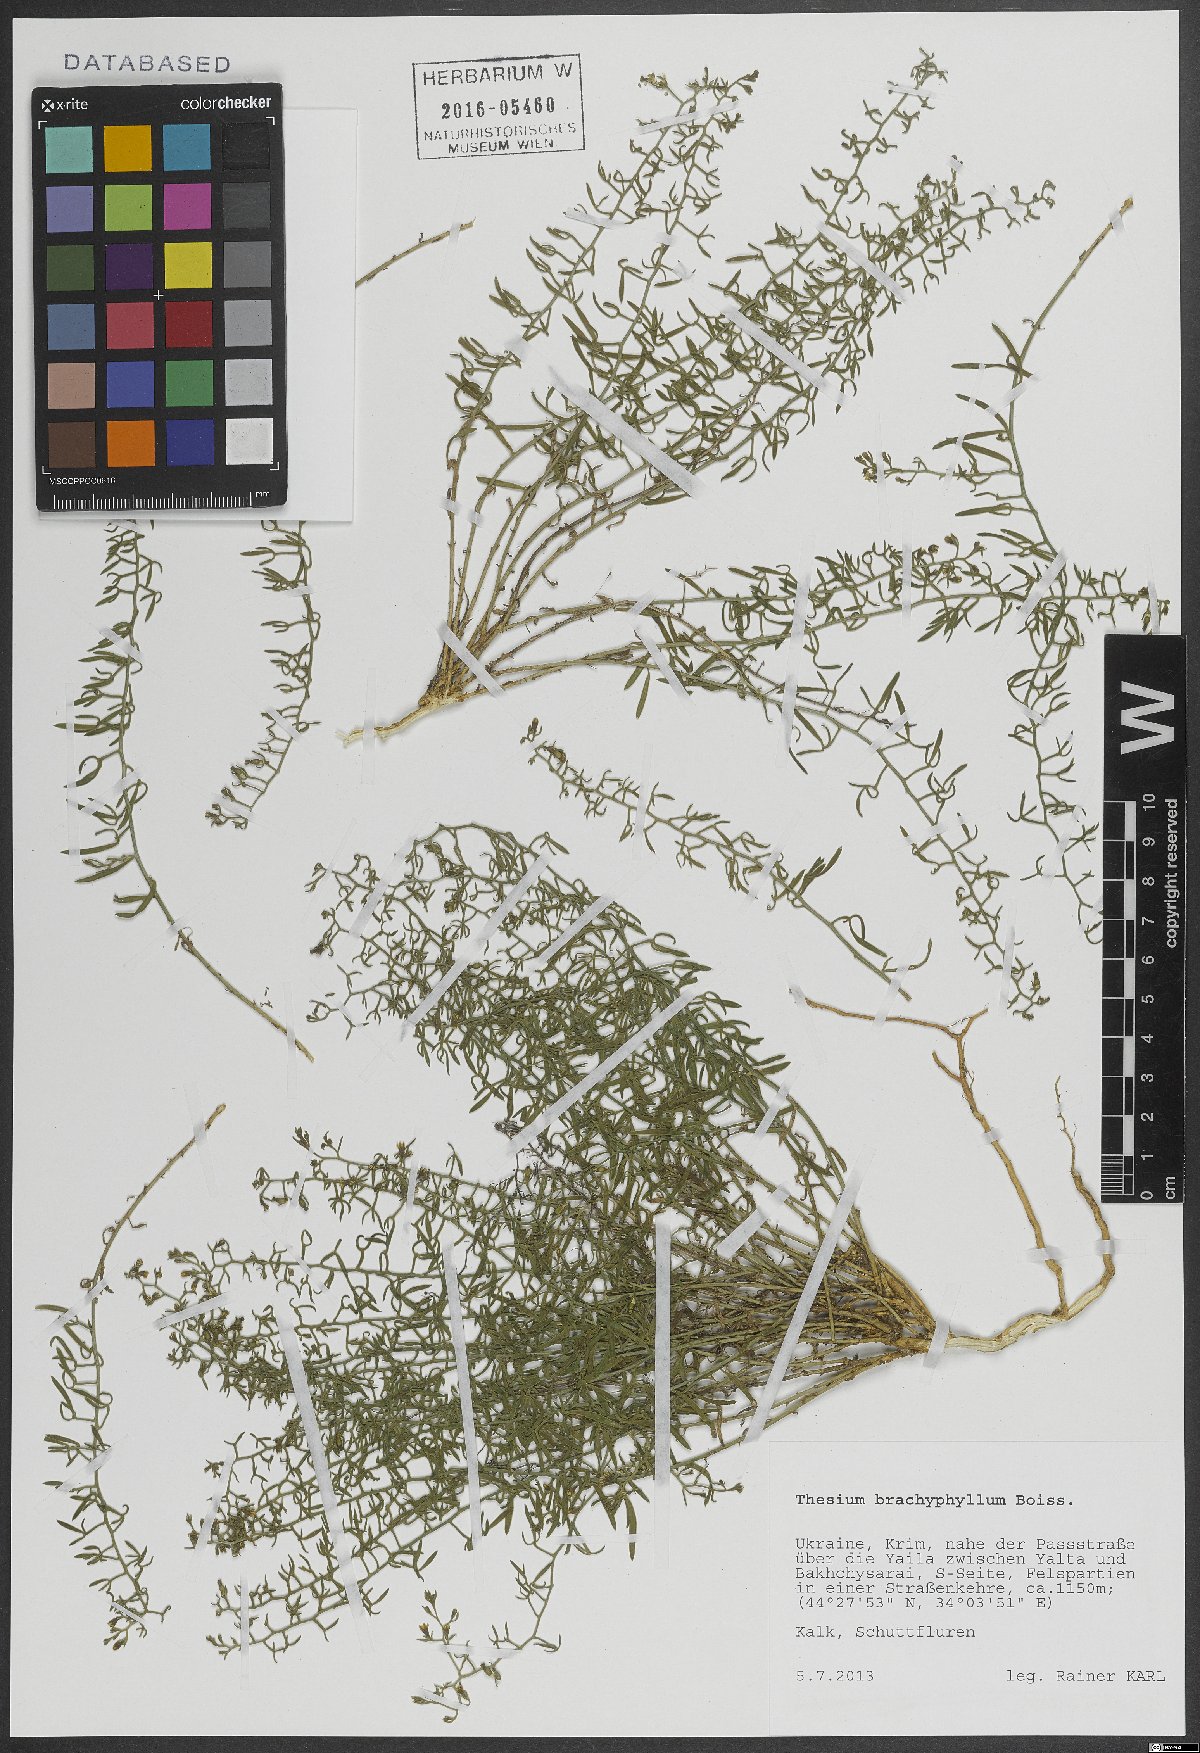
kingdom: Plantae
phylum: Tracheophyta
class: Magnoliopsida
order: Santalales
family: Thesiaceae
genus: Thesium
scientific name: Thesium procumbens
